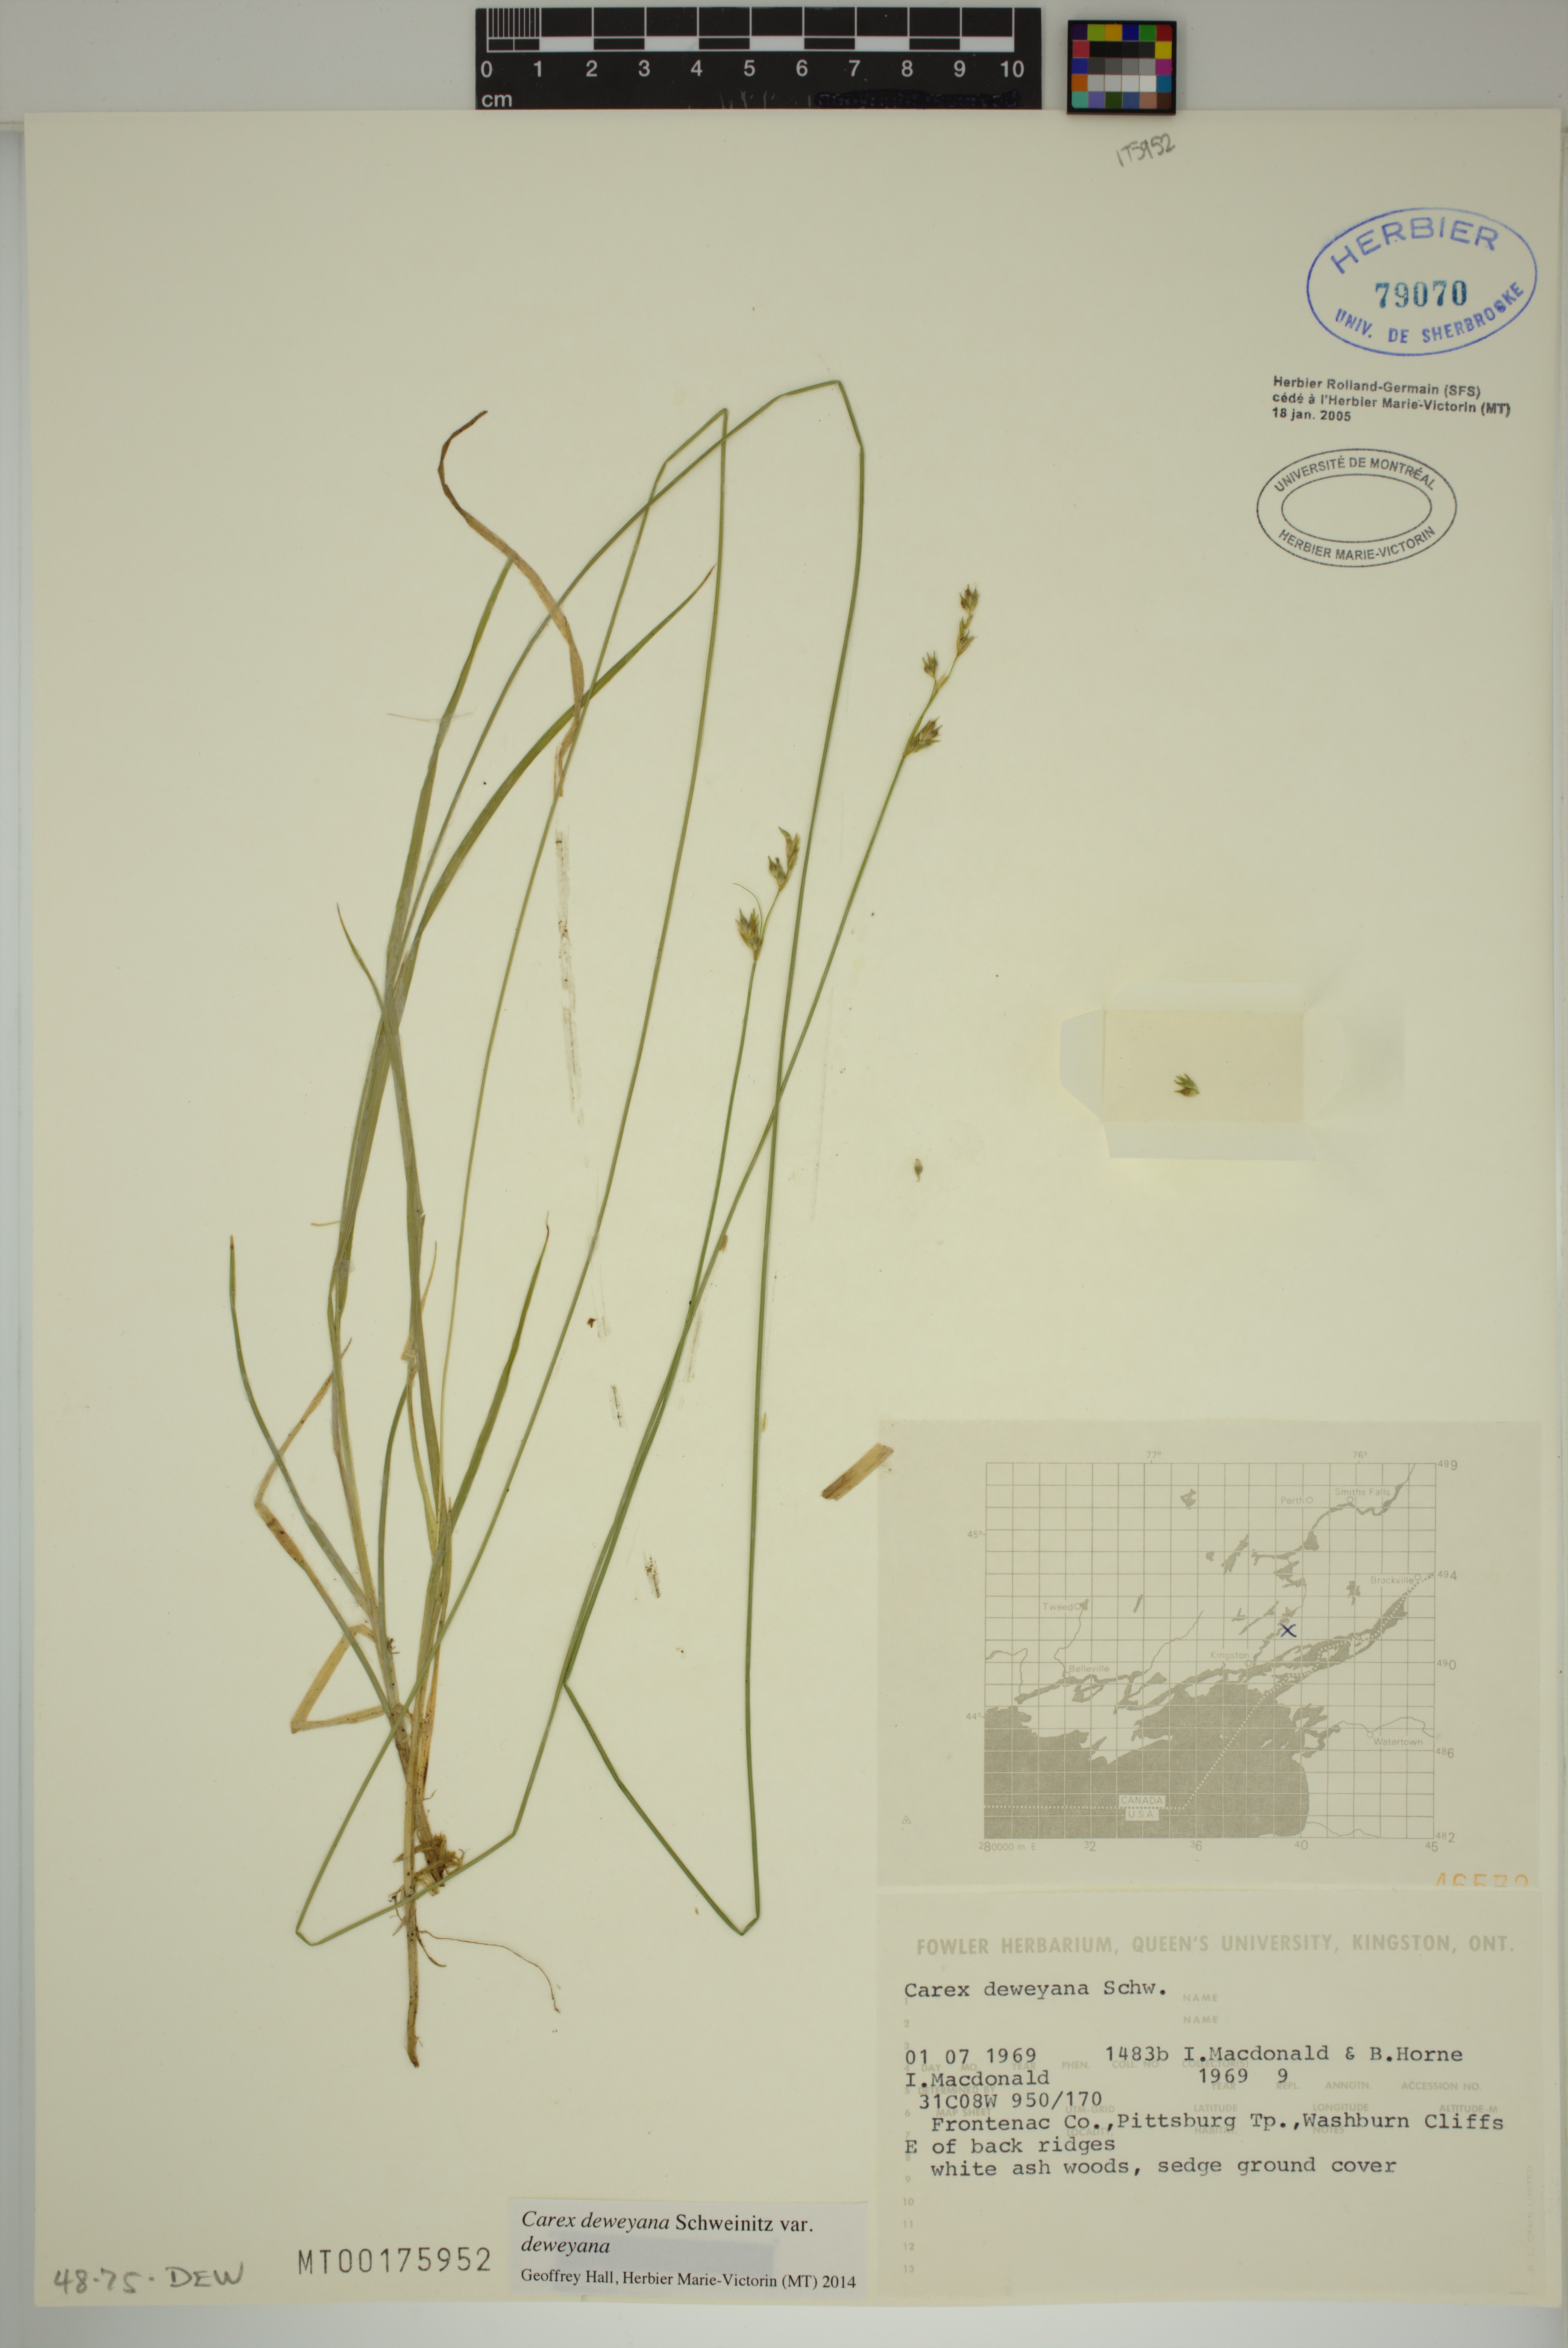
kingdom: Plantae
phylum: Tracheophyta
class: Liliopsida
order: Poales
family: Cyperaceae
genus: Carex
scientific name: Carex deweyana
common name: Dewey's sedge
